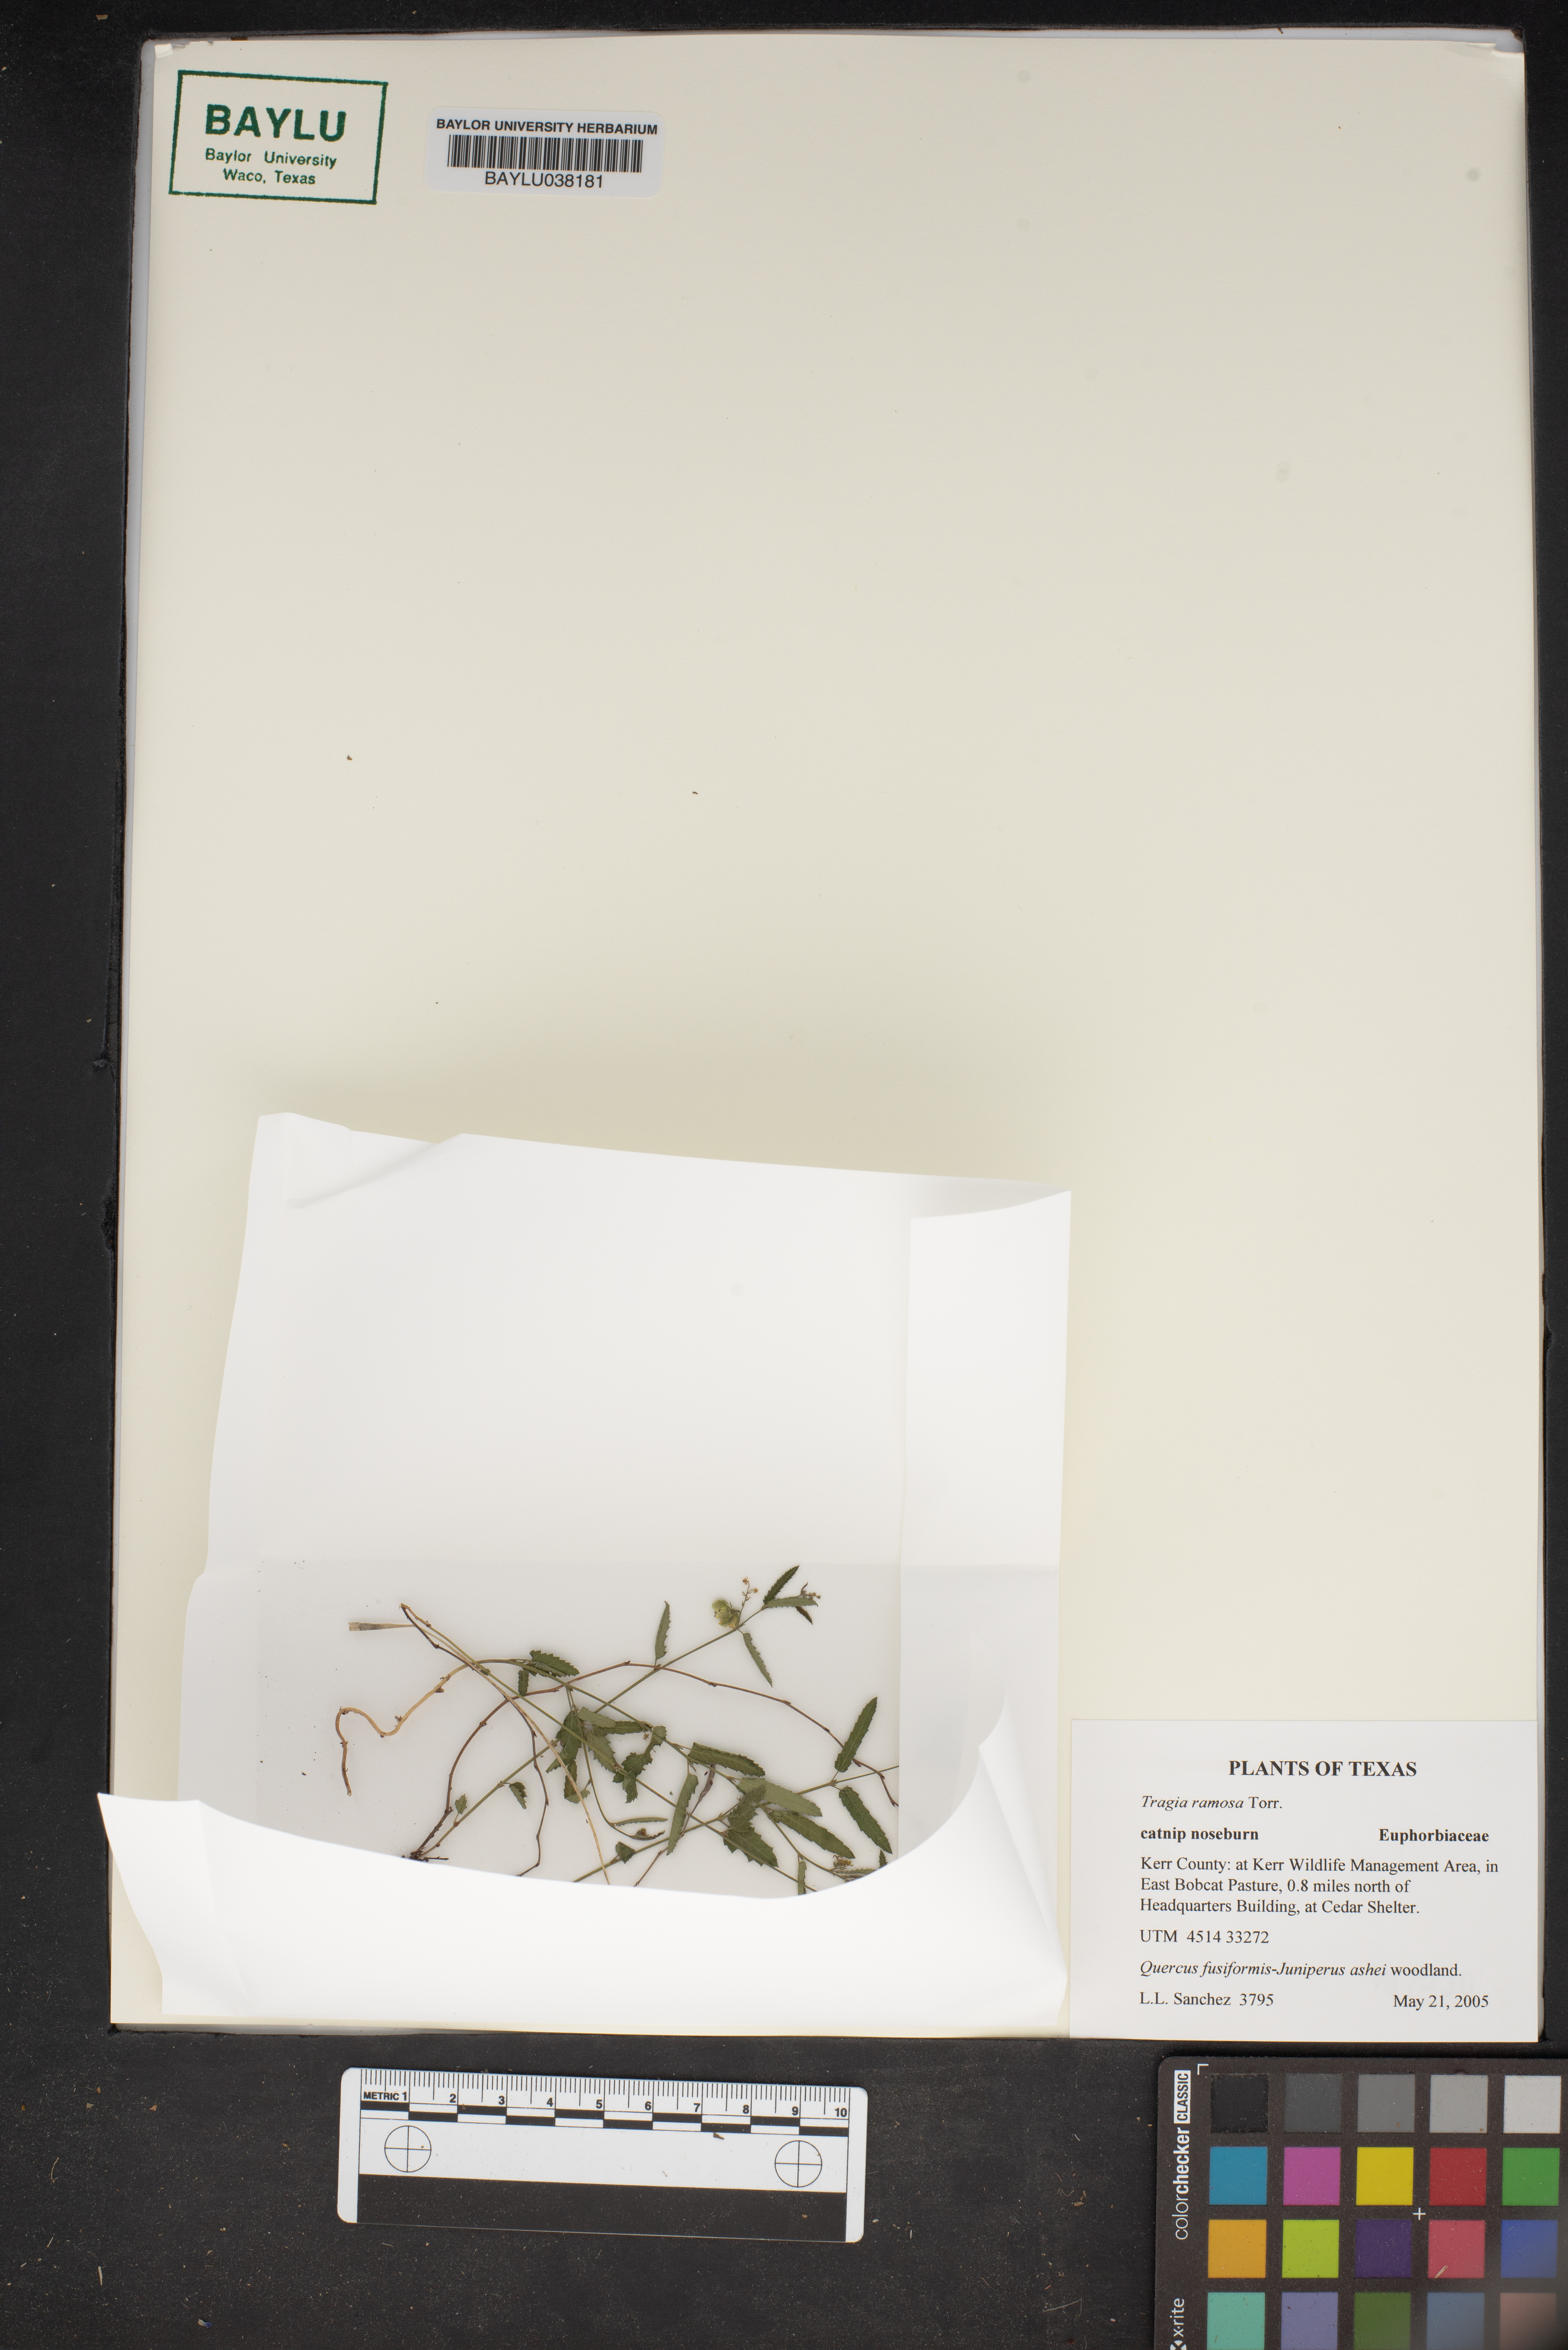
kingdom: Plantae
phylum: Tracheophyta
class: Magnoliopsida
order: Malpighiales
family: Euphorbiaceae
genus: Tragia
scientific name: Tragia ramosa
